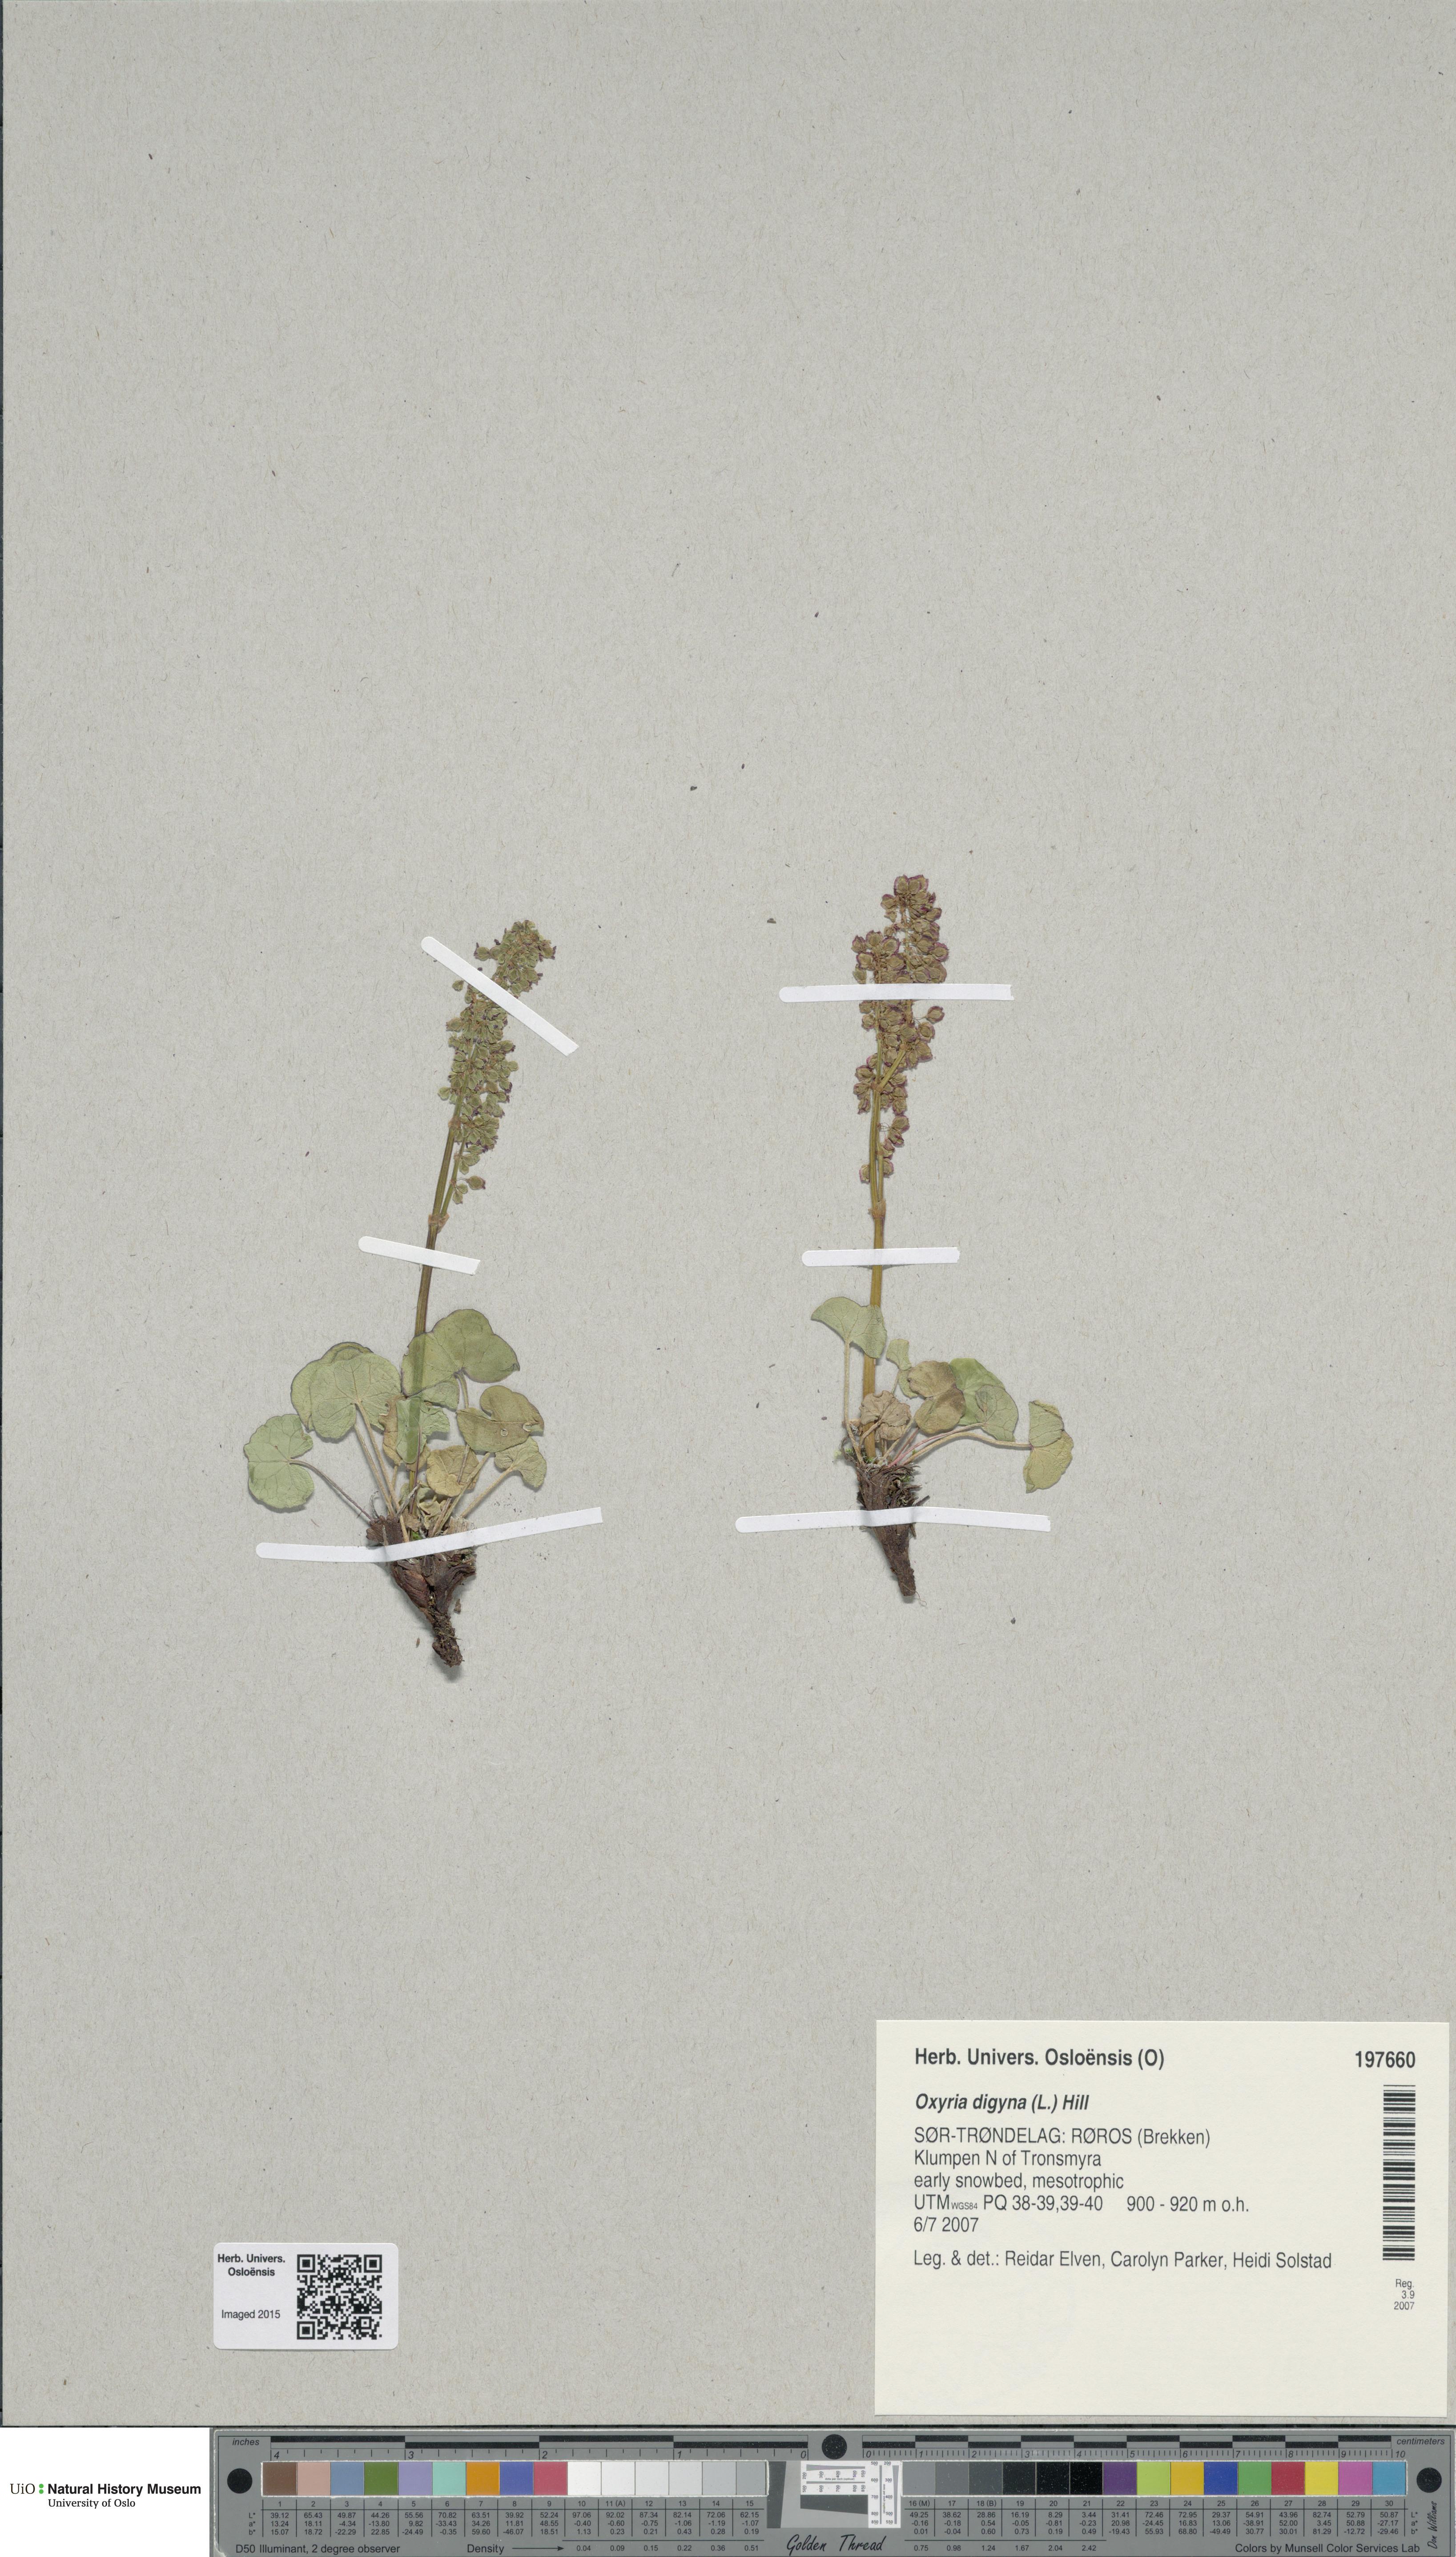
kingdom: Plantae
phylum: Tracheophyta
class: Magnoliopsida
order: Caryophyllales
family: Polygonaceae
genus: Oxyria
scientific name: Oxyria digyna
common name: Alpine mountain-sorrel
